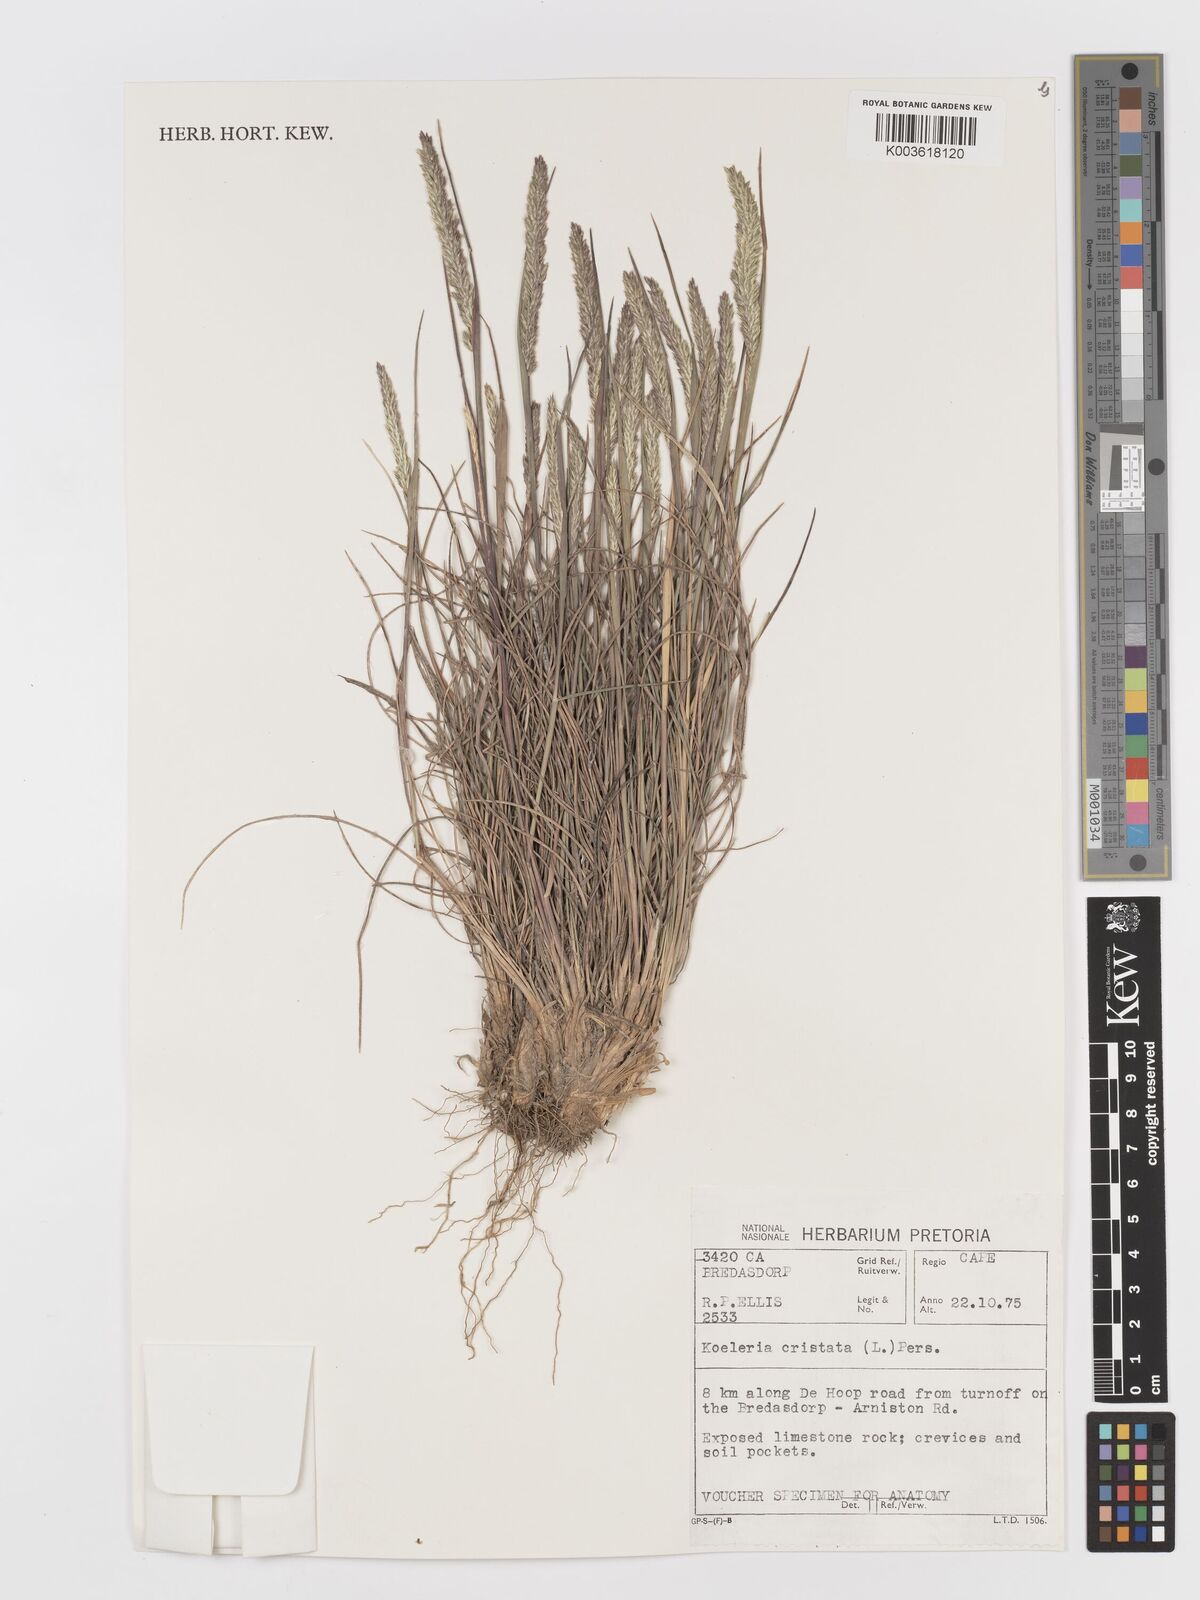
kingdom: Plantae
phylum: Tracheophyta
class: Liliopsida
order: Poales
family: Poaceae
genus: Koeleria
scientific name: Koeleria capensis
